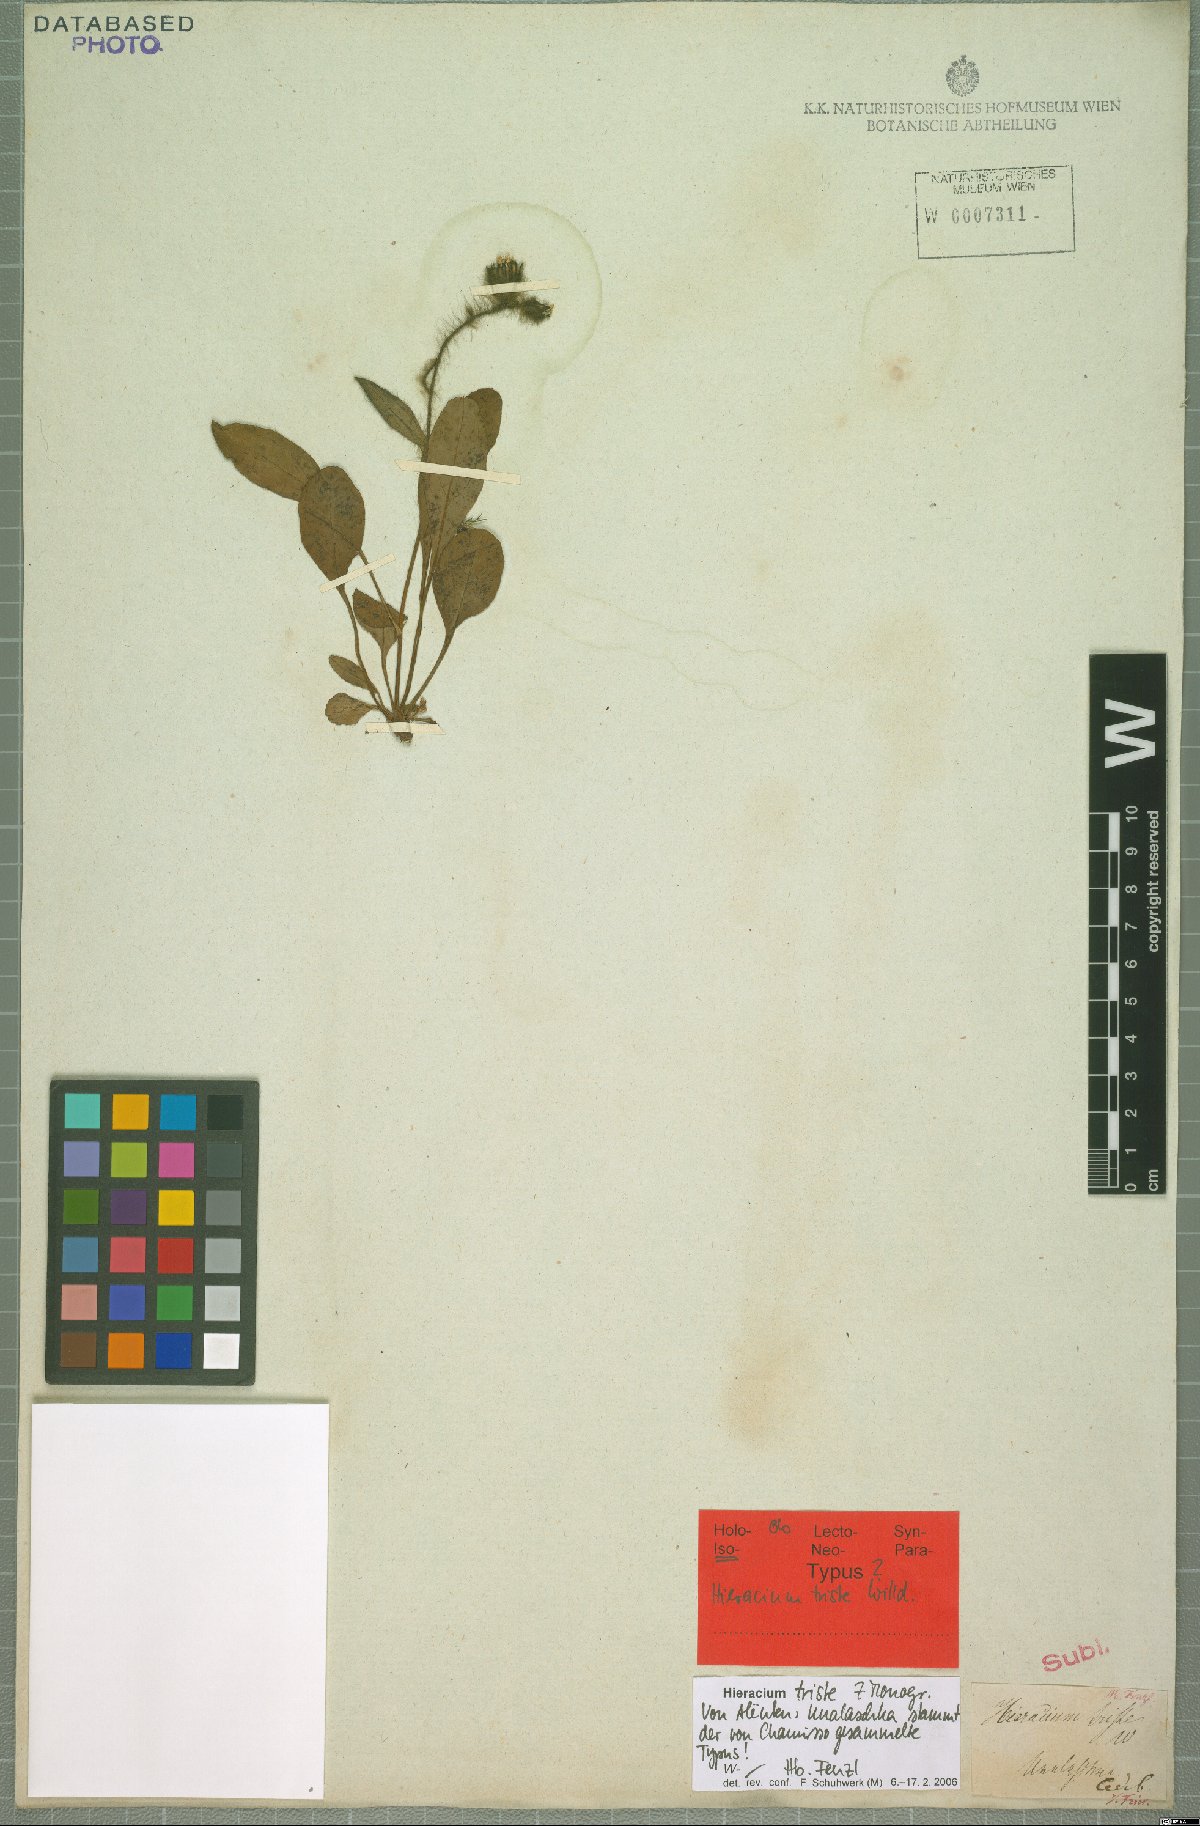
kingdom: Plantae
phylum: Tracheophyta
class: Magnoliopsida
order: Asterales
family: Asteraceae
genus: Hieracium
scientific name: Hieracium triste
